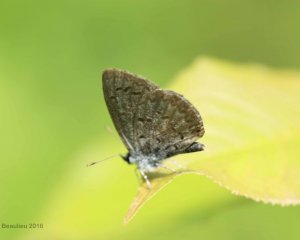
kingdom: Animalia
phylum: Arthropoda
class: Insecta
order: Lepidoptera
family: Lycaenidae
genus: Celastrina
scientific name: Celastrina lucia
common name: Northern Spring Azure
